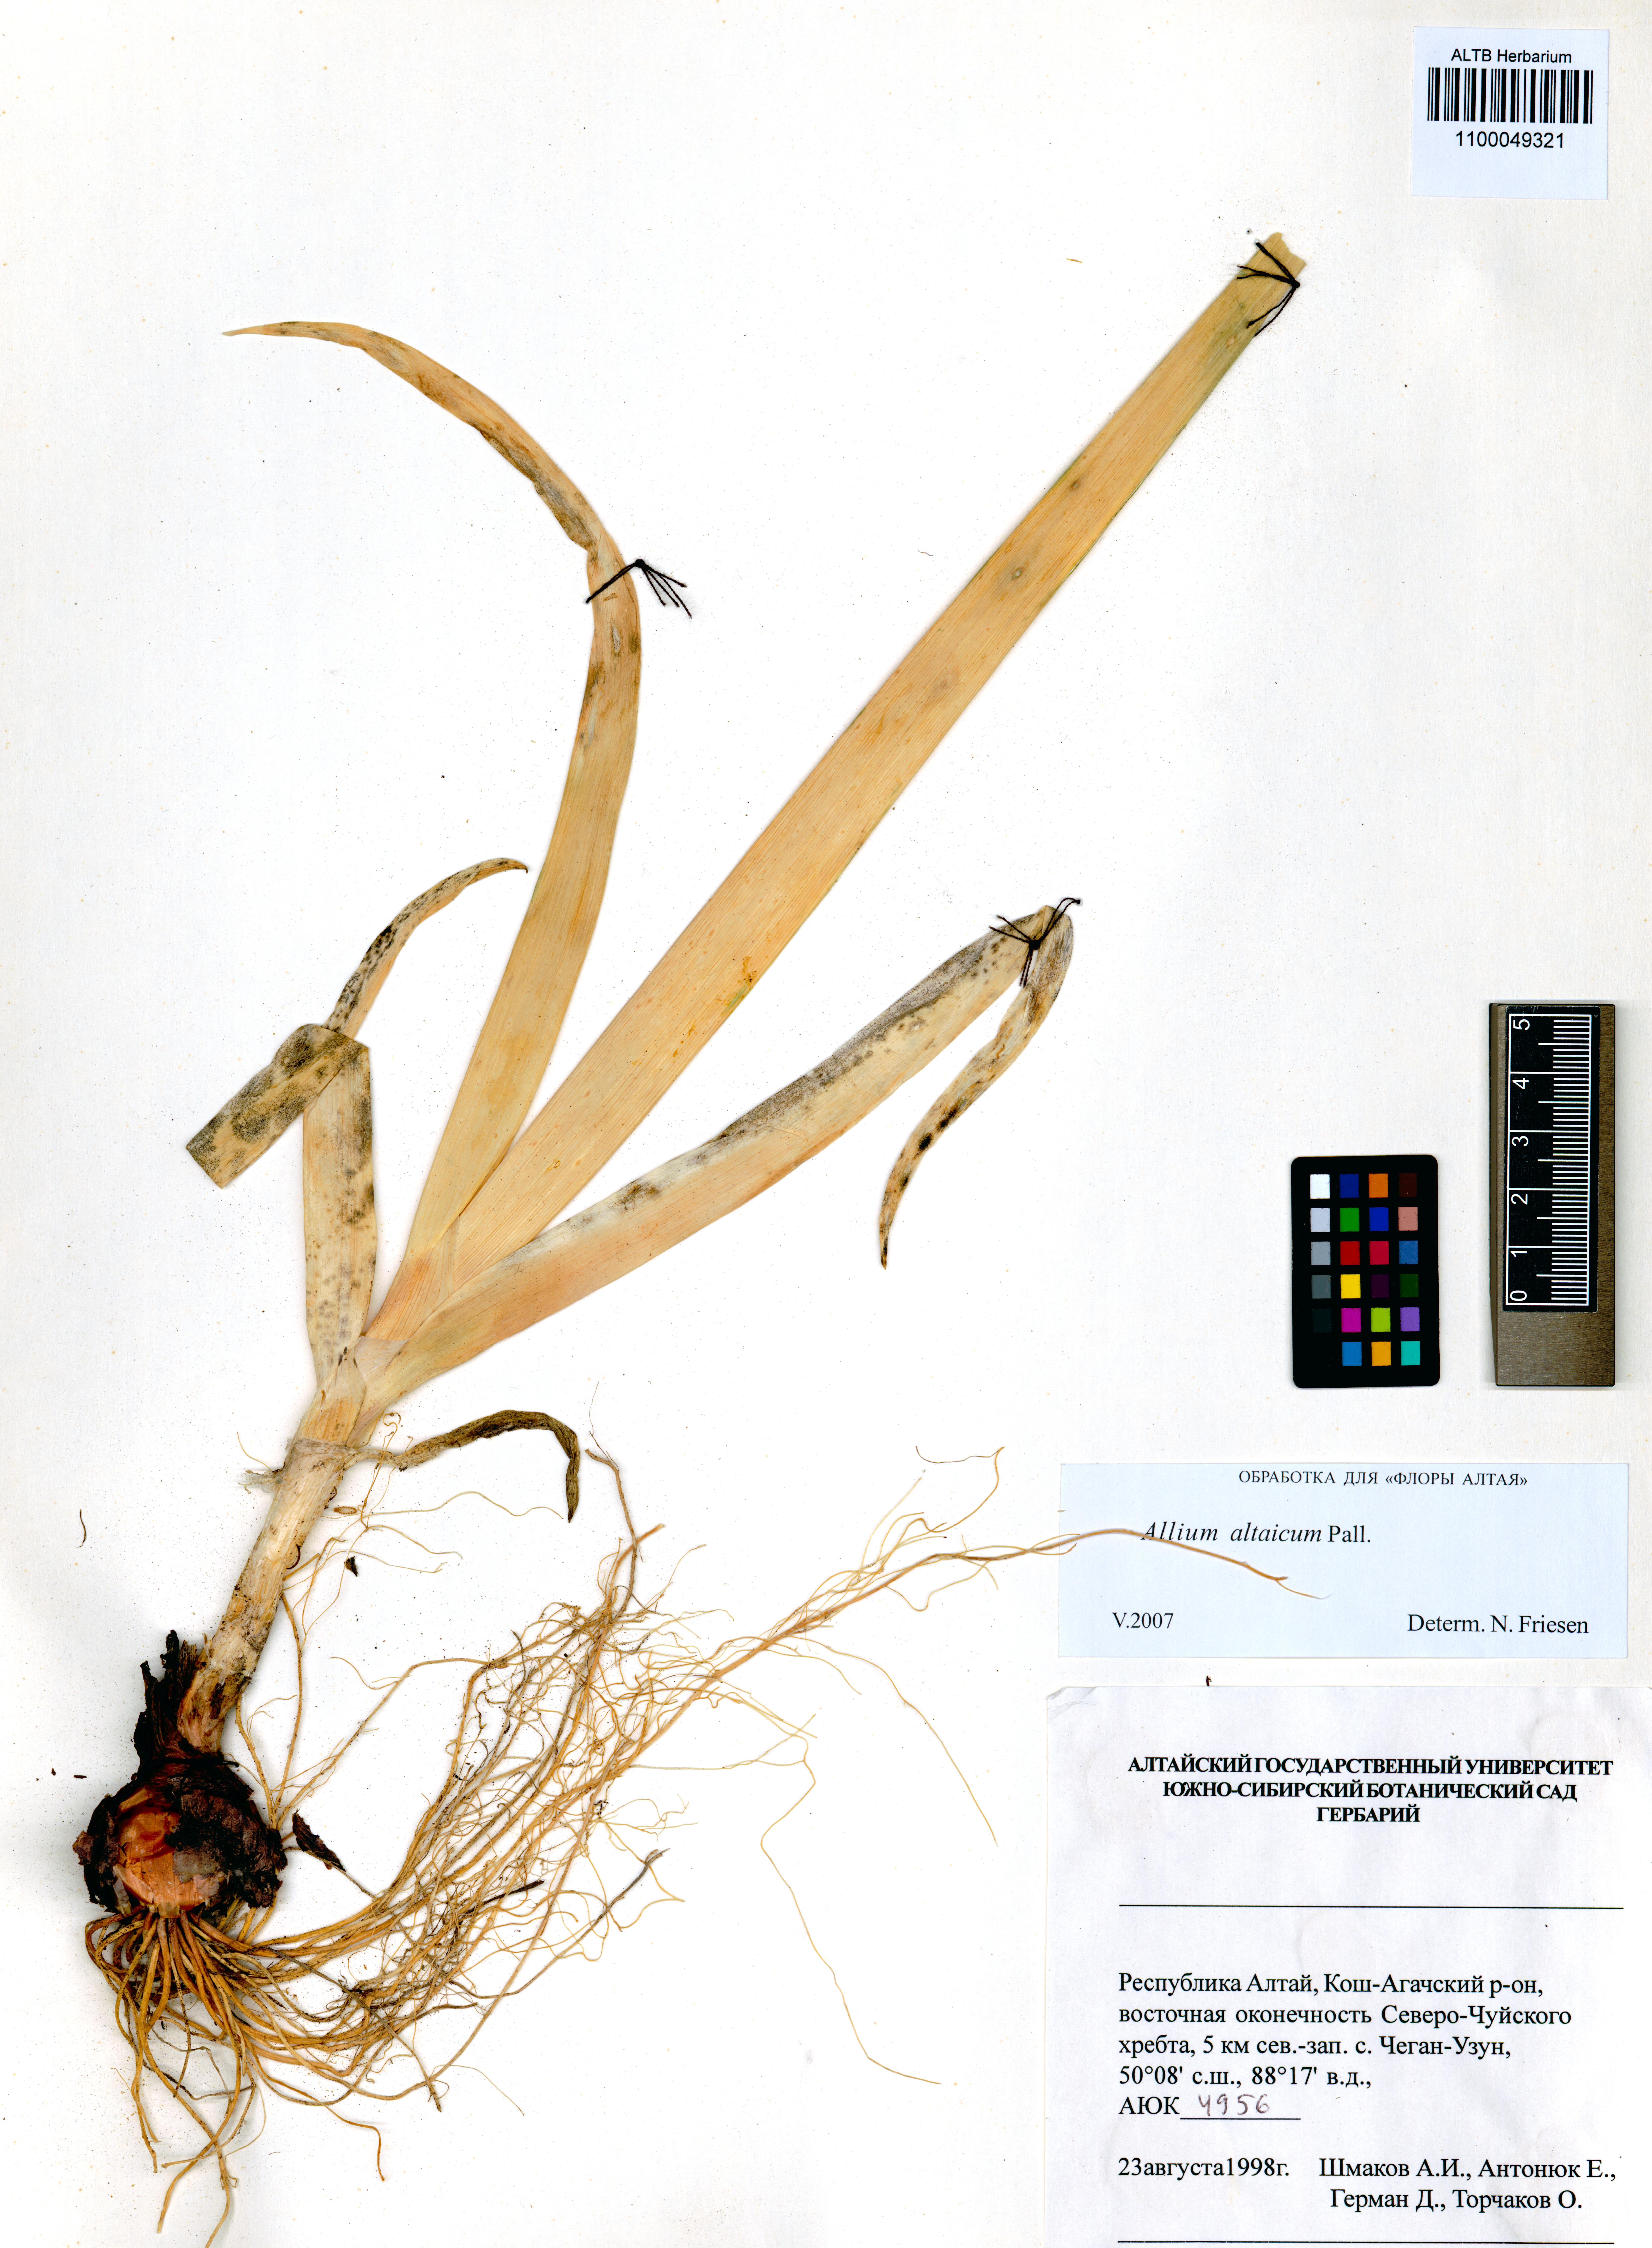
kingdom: Plantae
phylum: Tracheophyta
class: Liliopsida
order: Asparagales
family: Amaryllidaceae
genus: Allium
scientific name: Allium altaicum
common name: Altai onion
